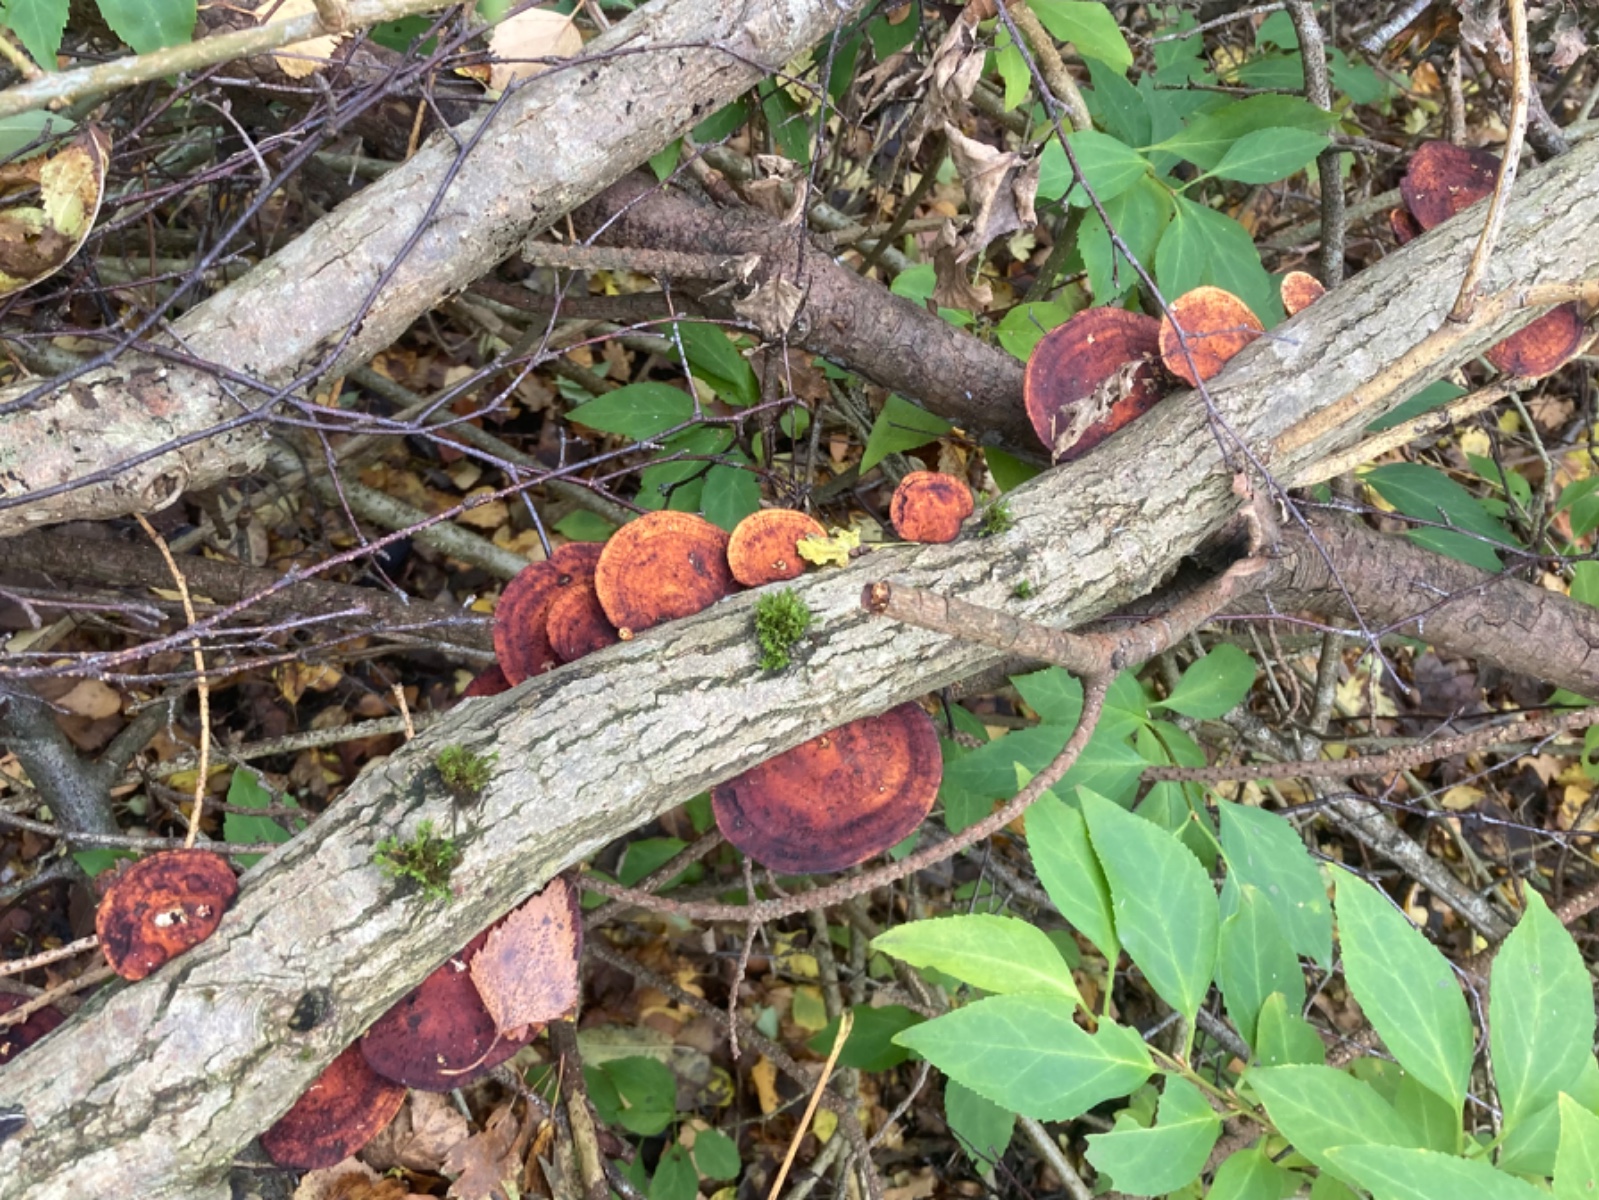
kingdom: Fungi
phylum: Basidiomycota
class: Agaricomycetes
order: Polyporales
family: Polyporaceae
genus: Daedaleopsis
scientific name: Daedaleopsis confragosa
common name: rødmende læderporesvamp
